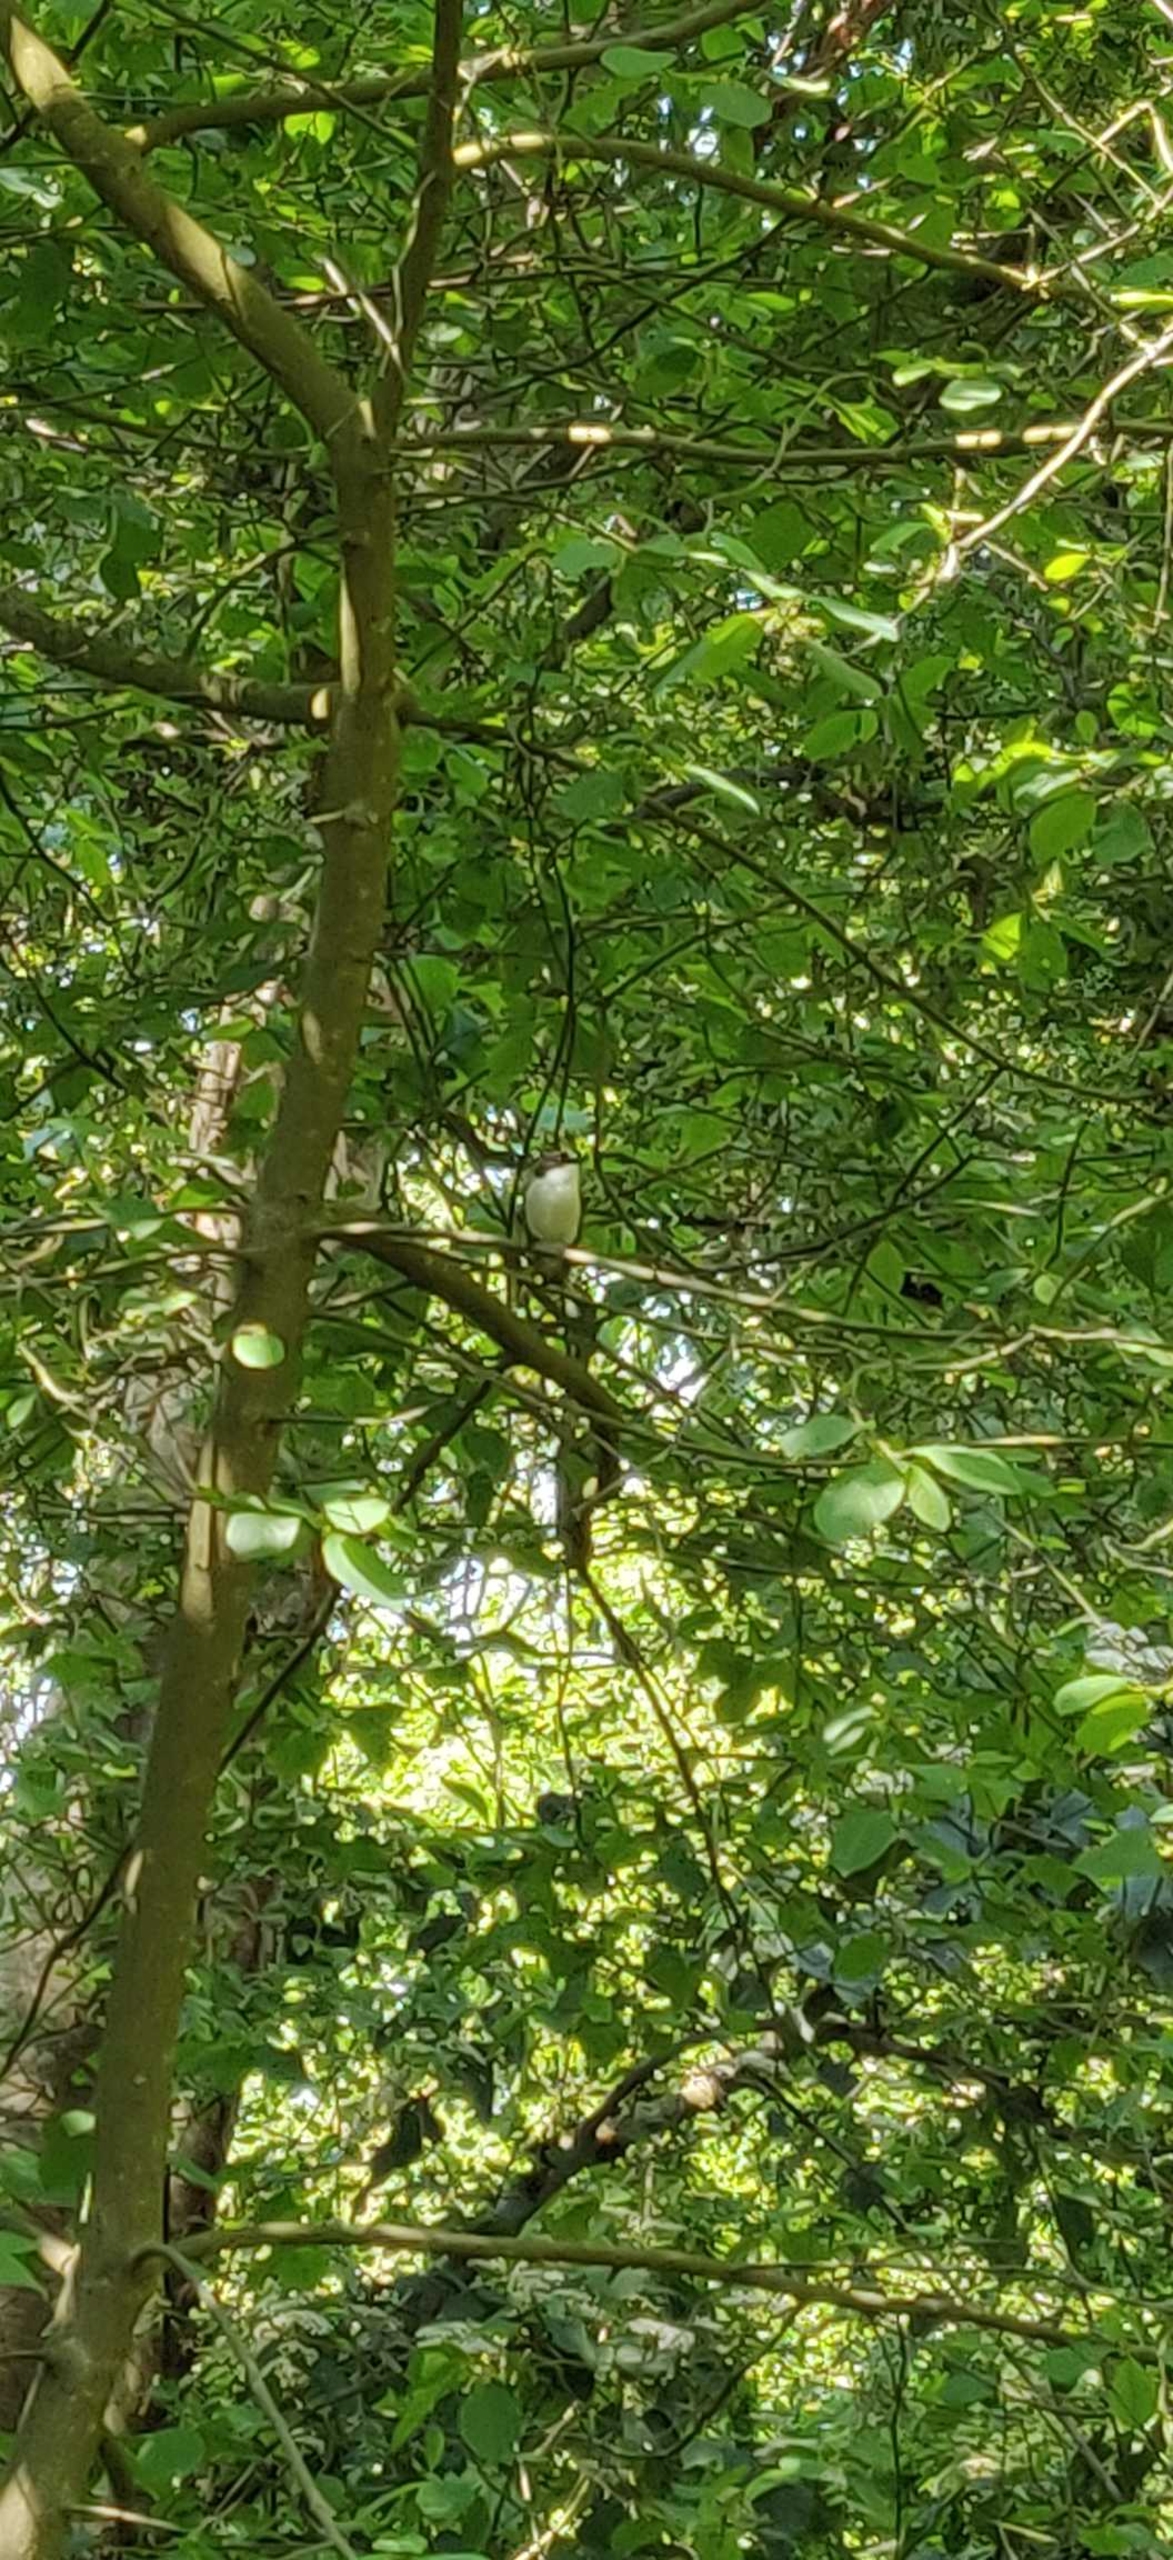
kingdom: Animalia
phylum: Chordata
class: Aves
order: Passeriformes
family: Muscicapidae
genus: Ficedula
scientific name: Ficedula hypoleuca
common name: Broget fluesnapper
